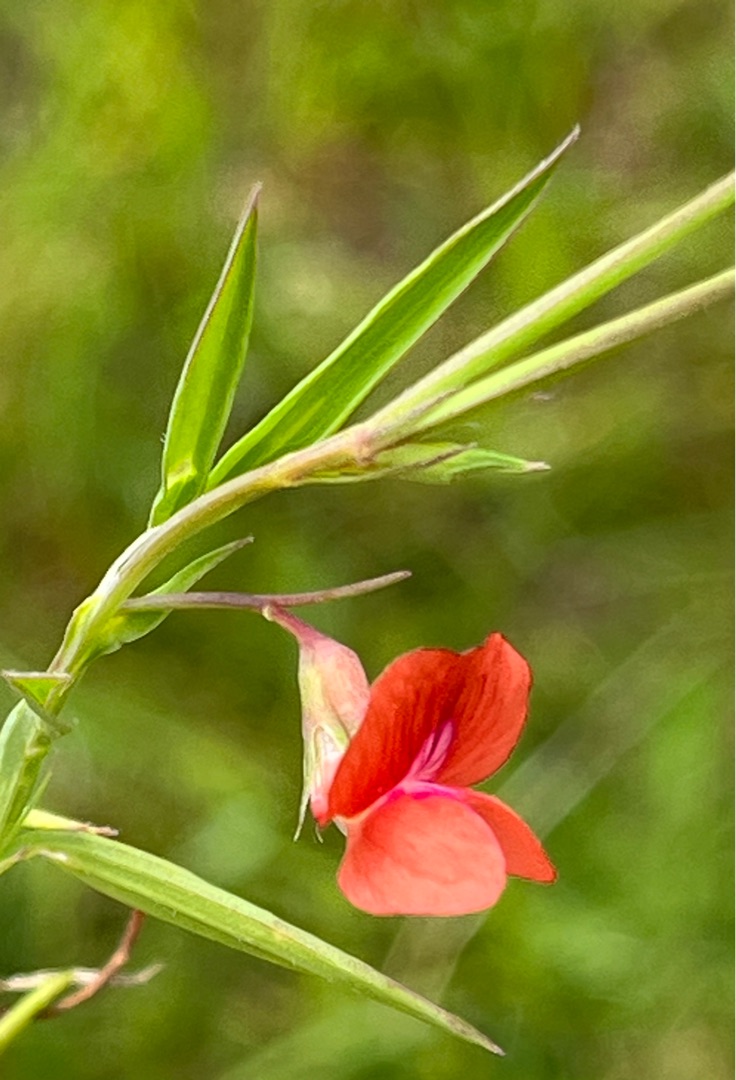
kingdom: Plantae
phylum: Tracheophyta
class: Magnoliopsida
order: Fabales
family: Fabaceae
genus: Lathyrus
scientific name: Lathyrus sphaericus
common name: Enblomstret fladbælg
